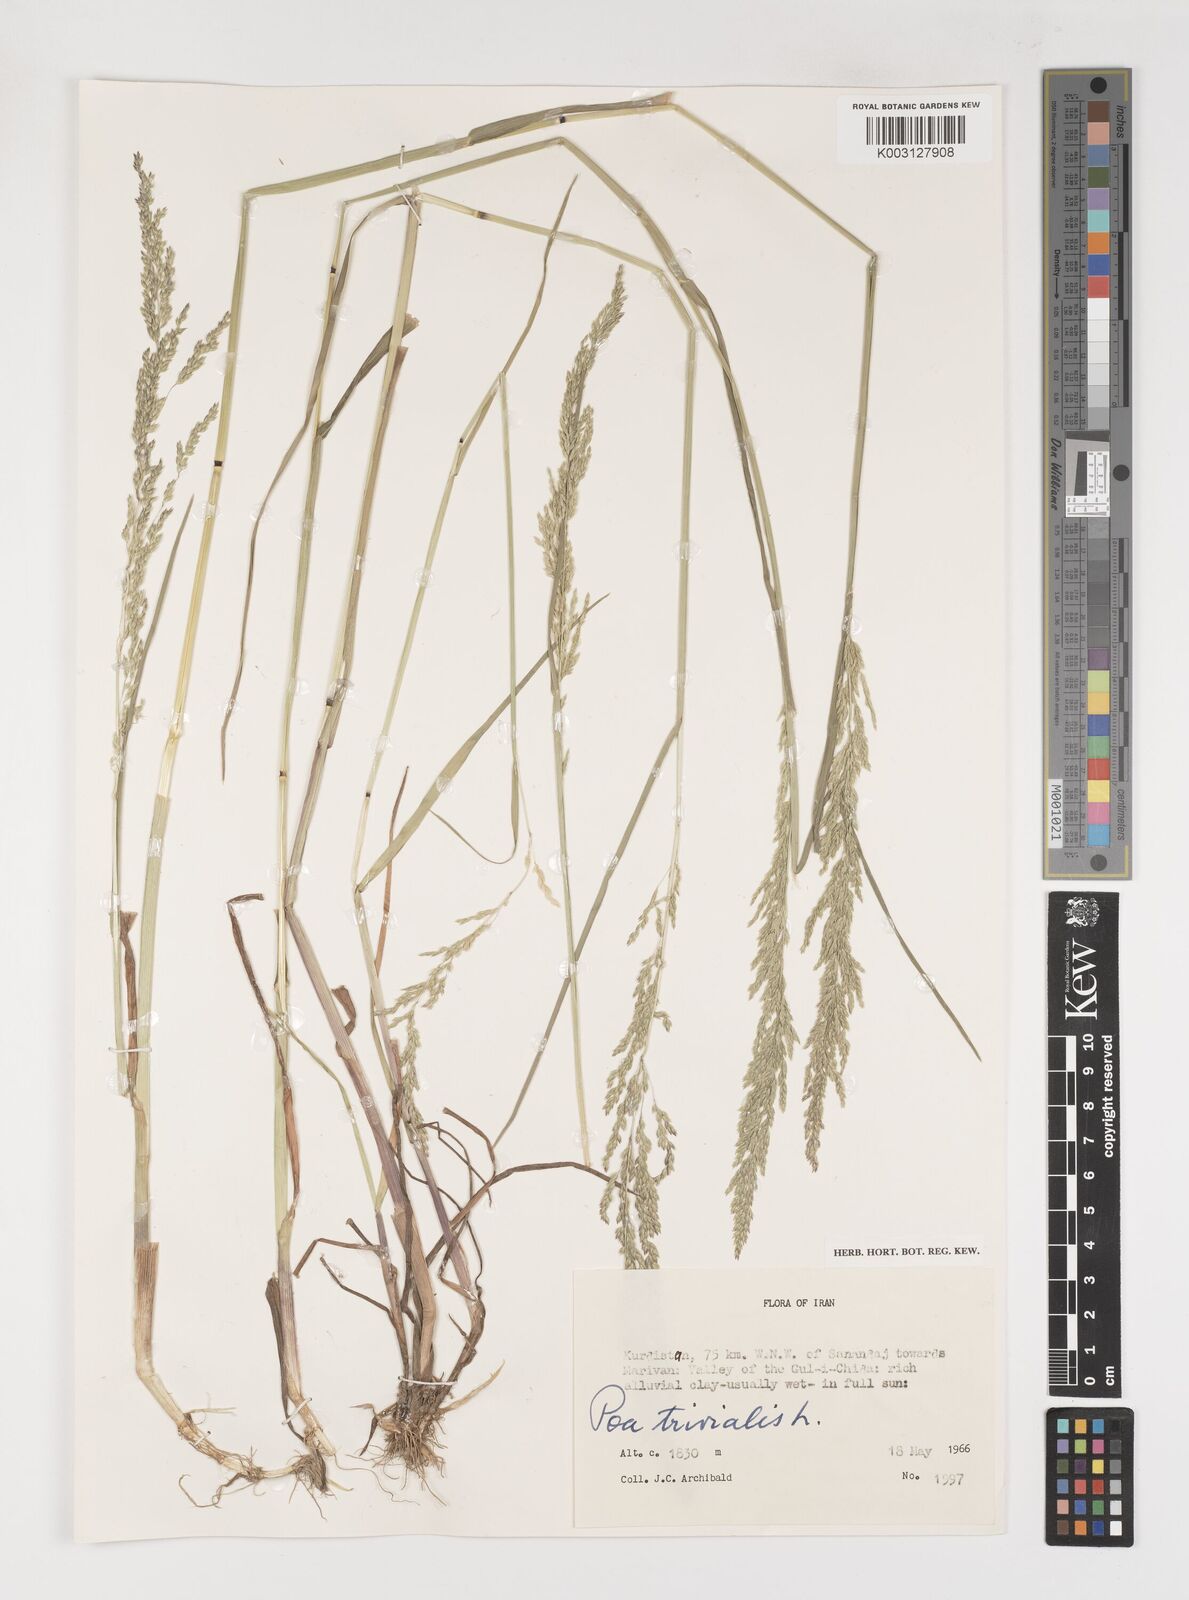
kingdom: Plantae
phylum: Tracheophyta
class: Liliopsida
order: Poales
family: Poaceae
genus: Poa
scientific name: Poa trivialis
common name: Rough bluegrass
